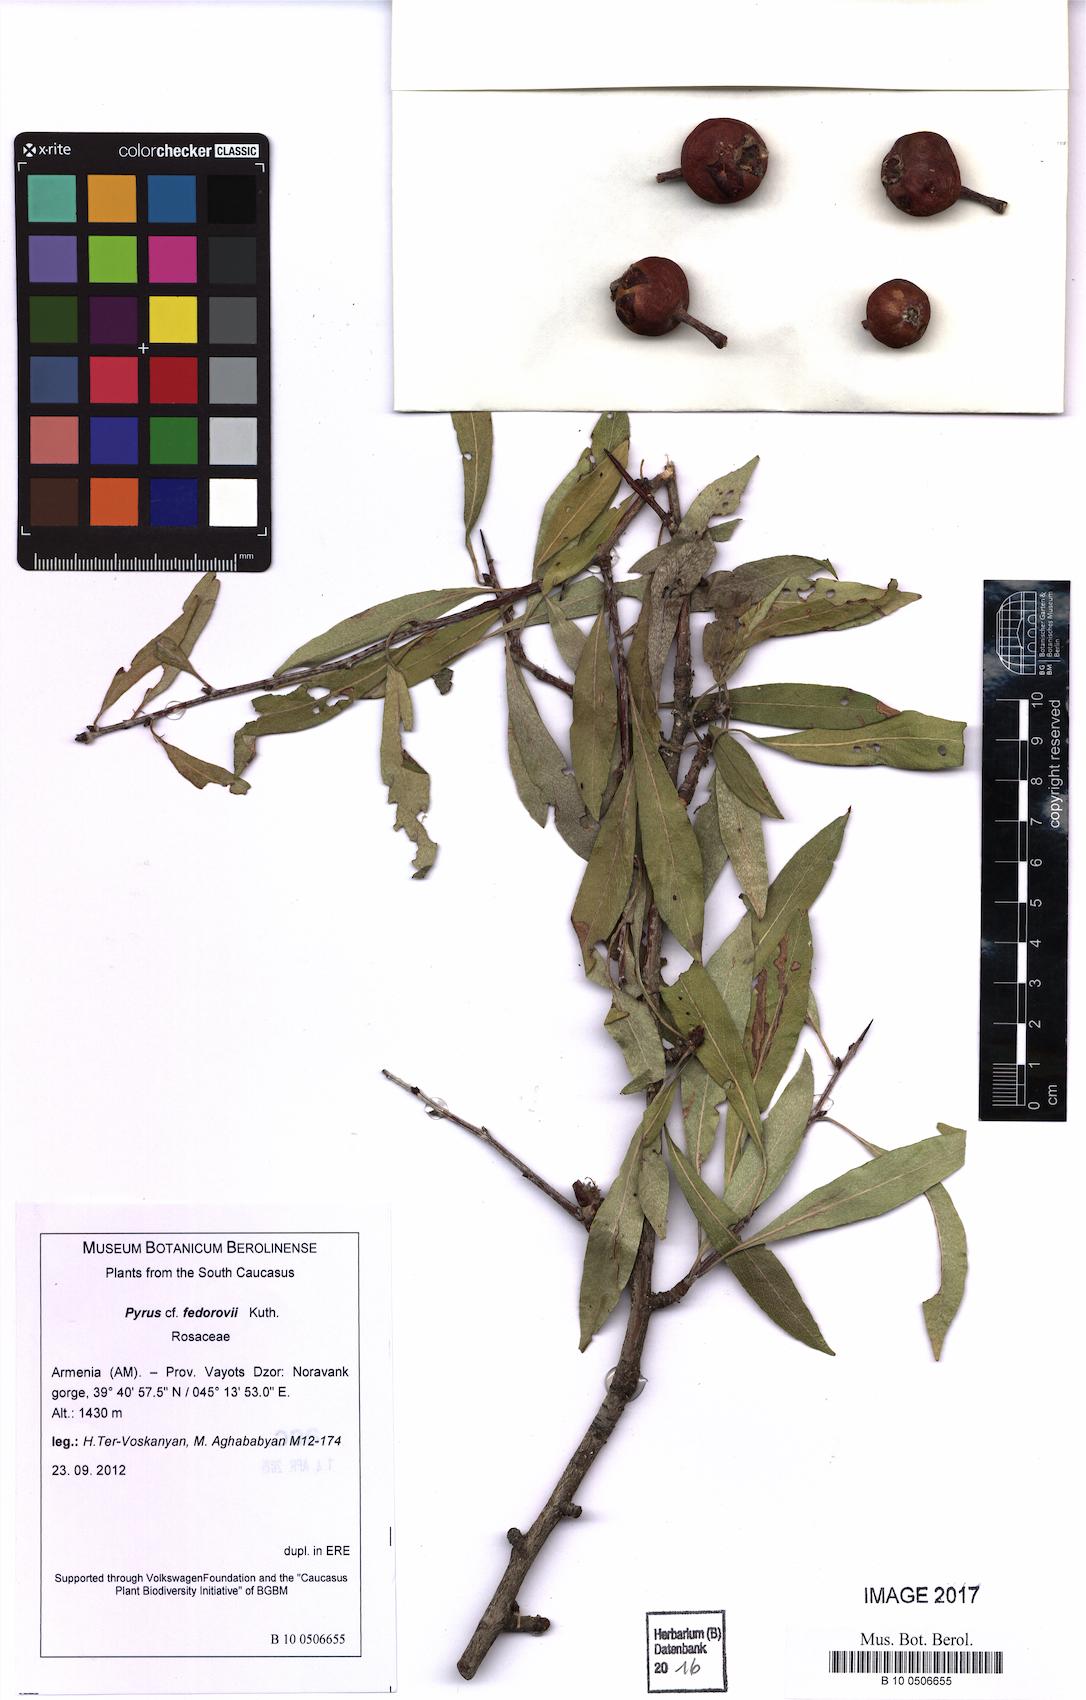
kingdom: Plantae
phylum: Tracheophyta
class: Magnoliopsida
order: Rosales
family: Rosaceae
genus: Pyrus
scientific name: Pyrus fedorovii
